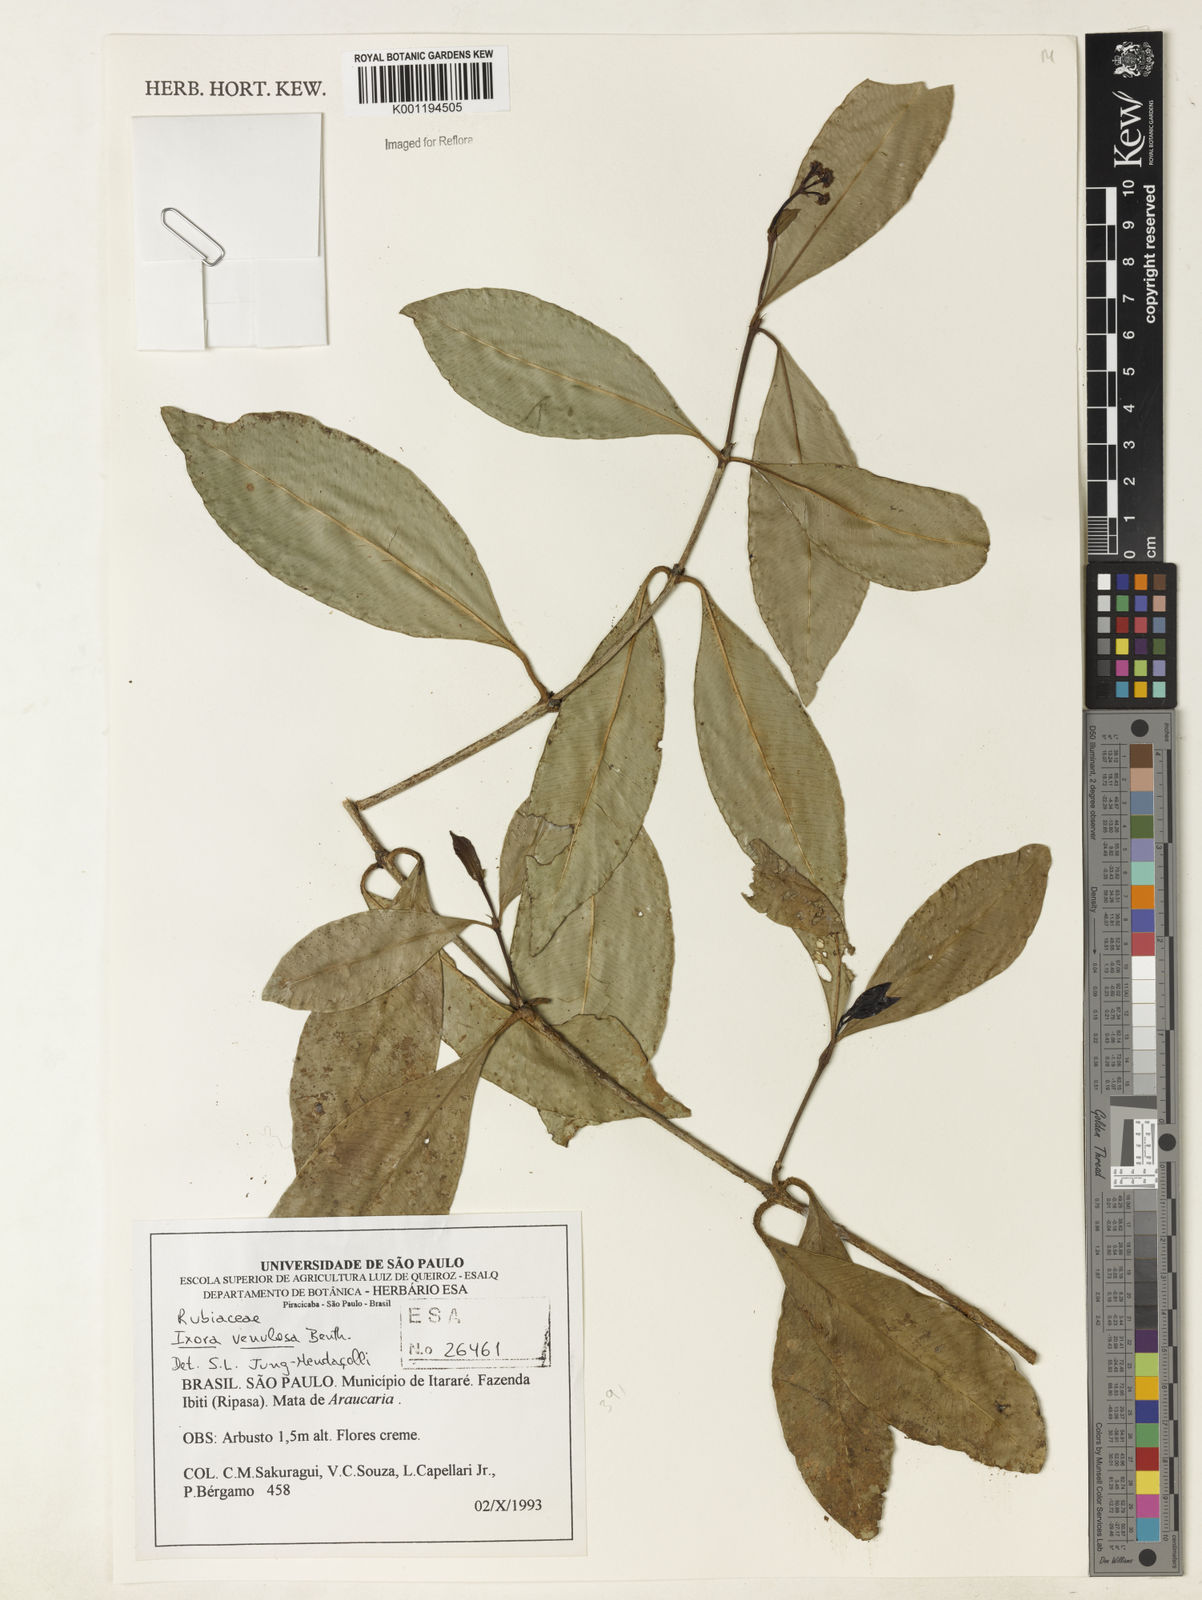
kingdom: Plantae
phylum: Tracheophyta
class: Magnoliopsida
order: Gentianales
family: Rubiaceae
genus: Ixora
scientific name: Ixora venulosa
